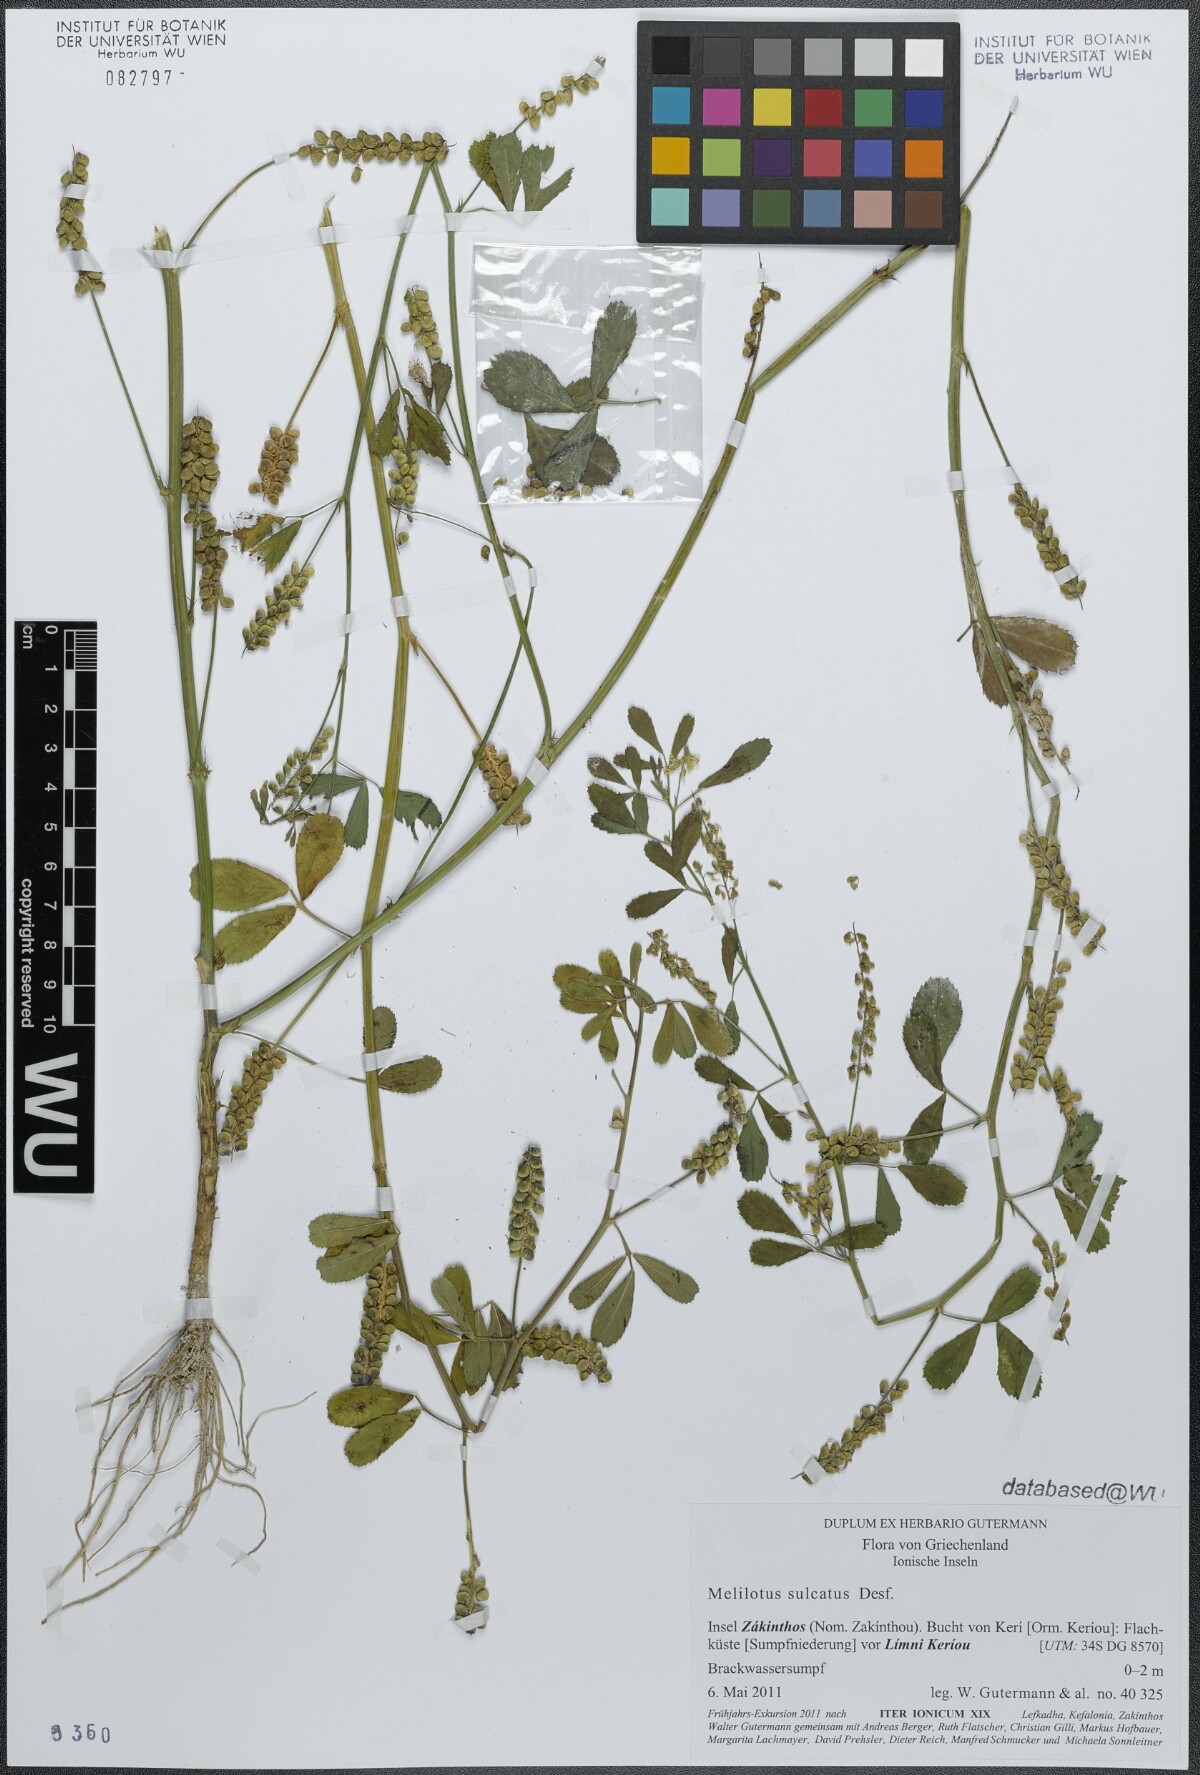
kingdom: Plantae
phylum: Tracheophyta
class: Magnoliopsida
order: Fabales
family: Fabaceae
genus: Melilotus
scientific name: Melilotus sulcatus
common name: Furrowed melilot
